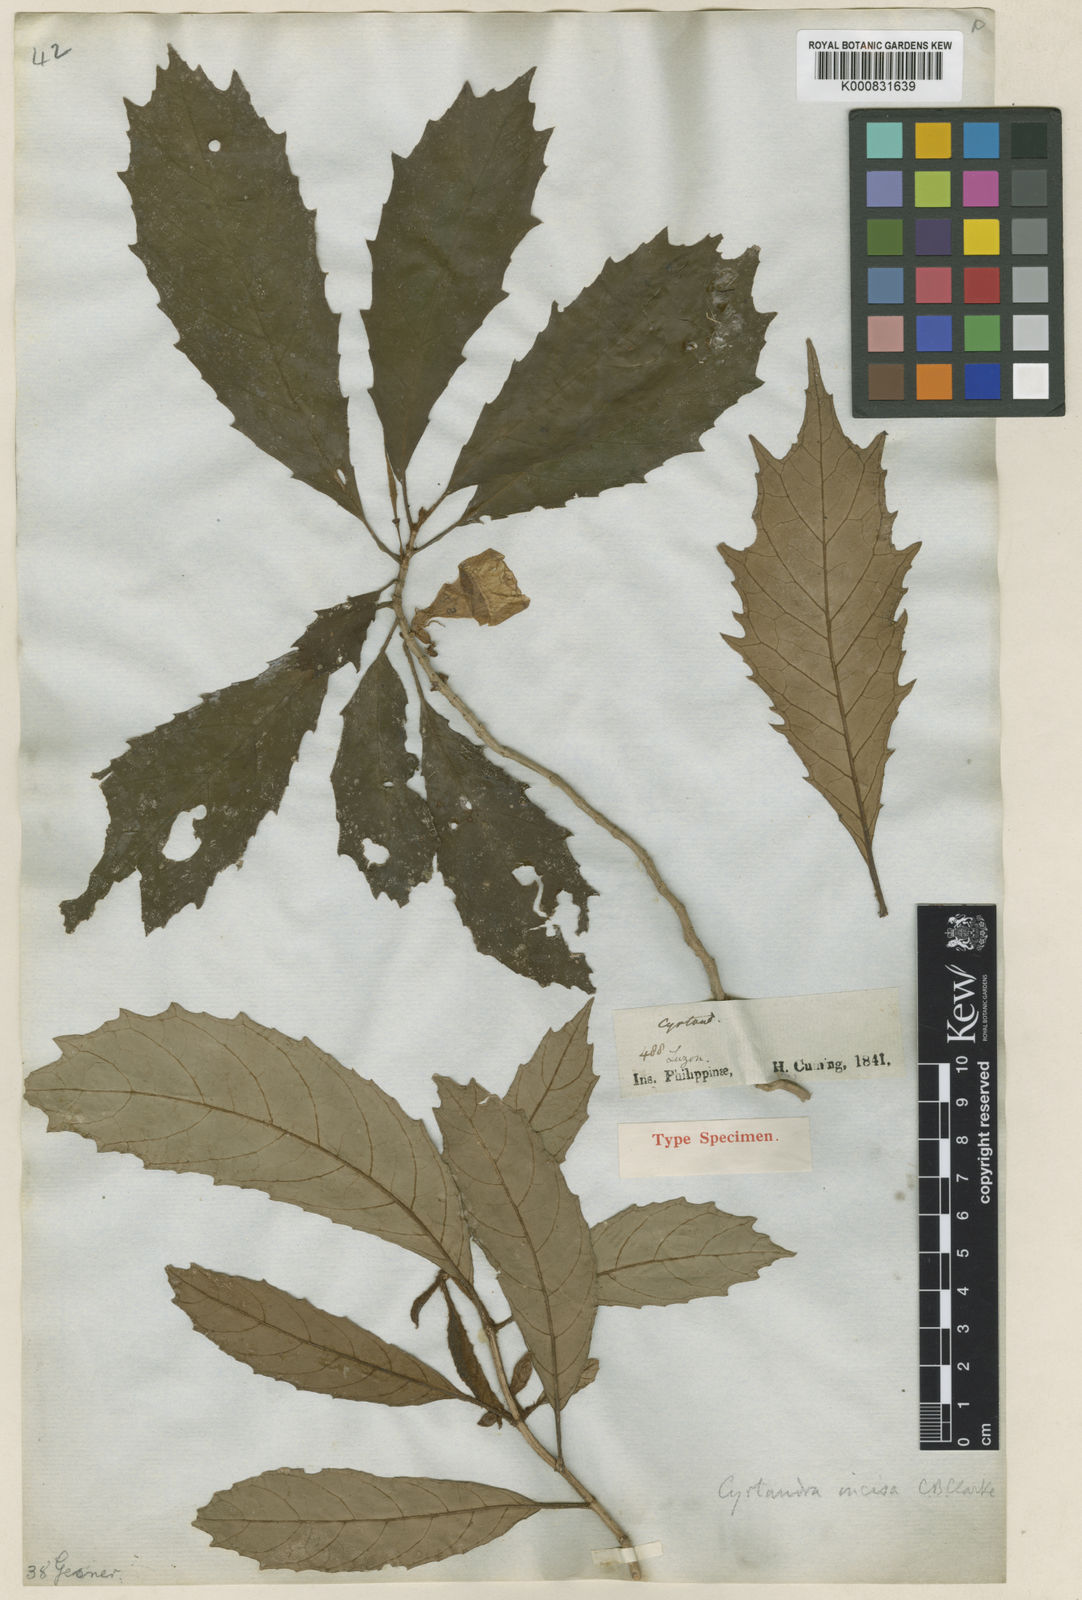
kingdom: Plantae
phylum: Tracheophyta
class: Magnoliopsida
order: Lamiales
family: Gesneriaceae
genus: Cyrtandra
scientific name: Cyrtandra incisa
